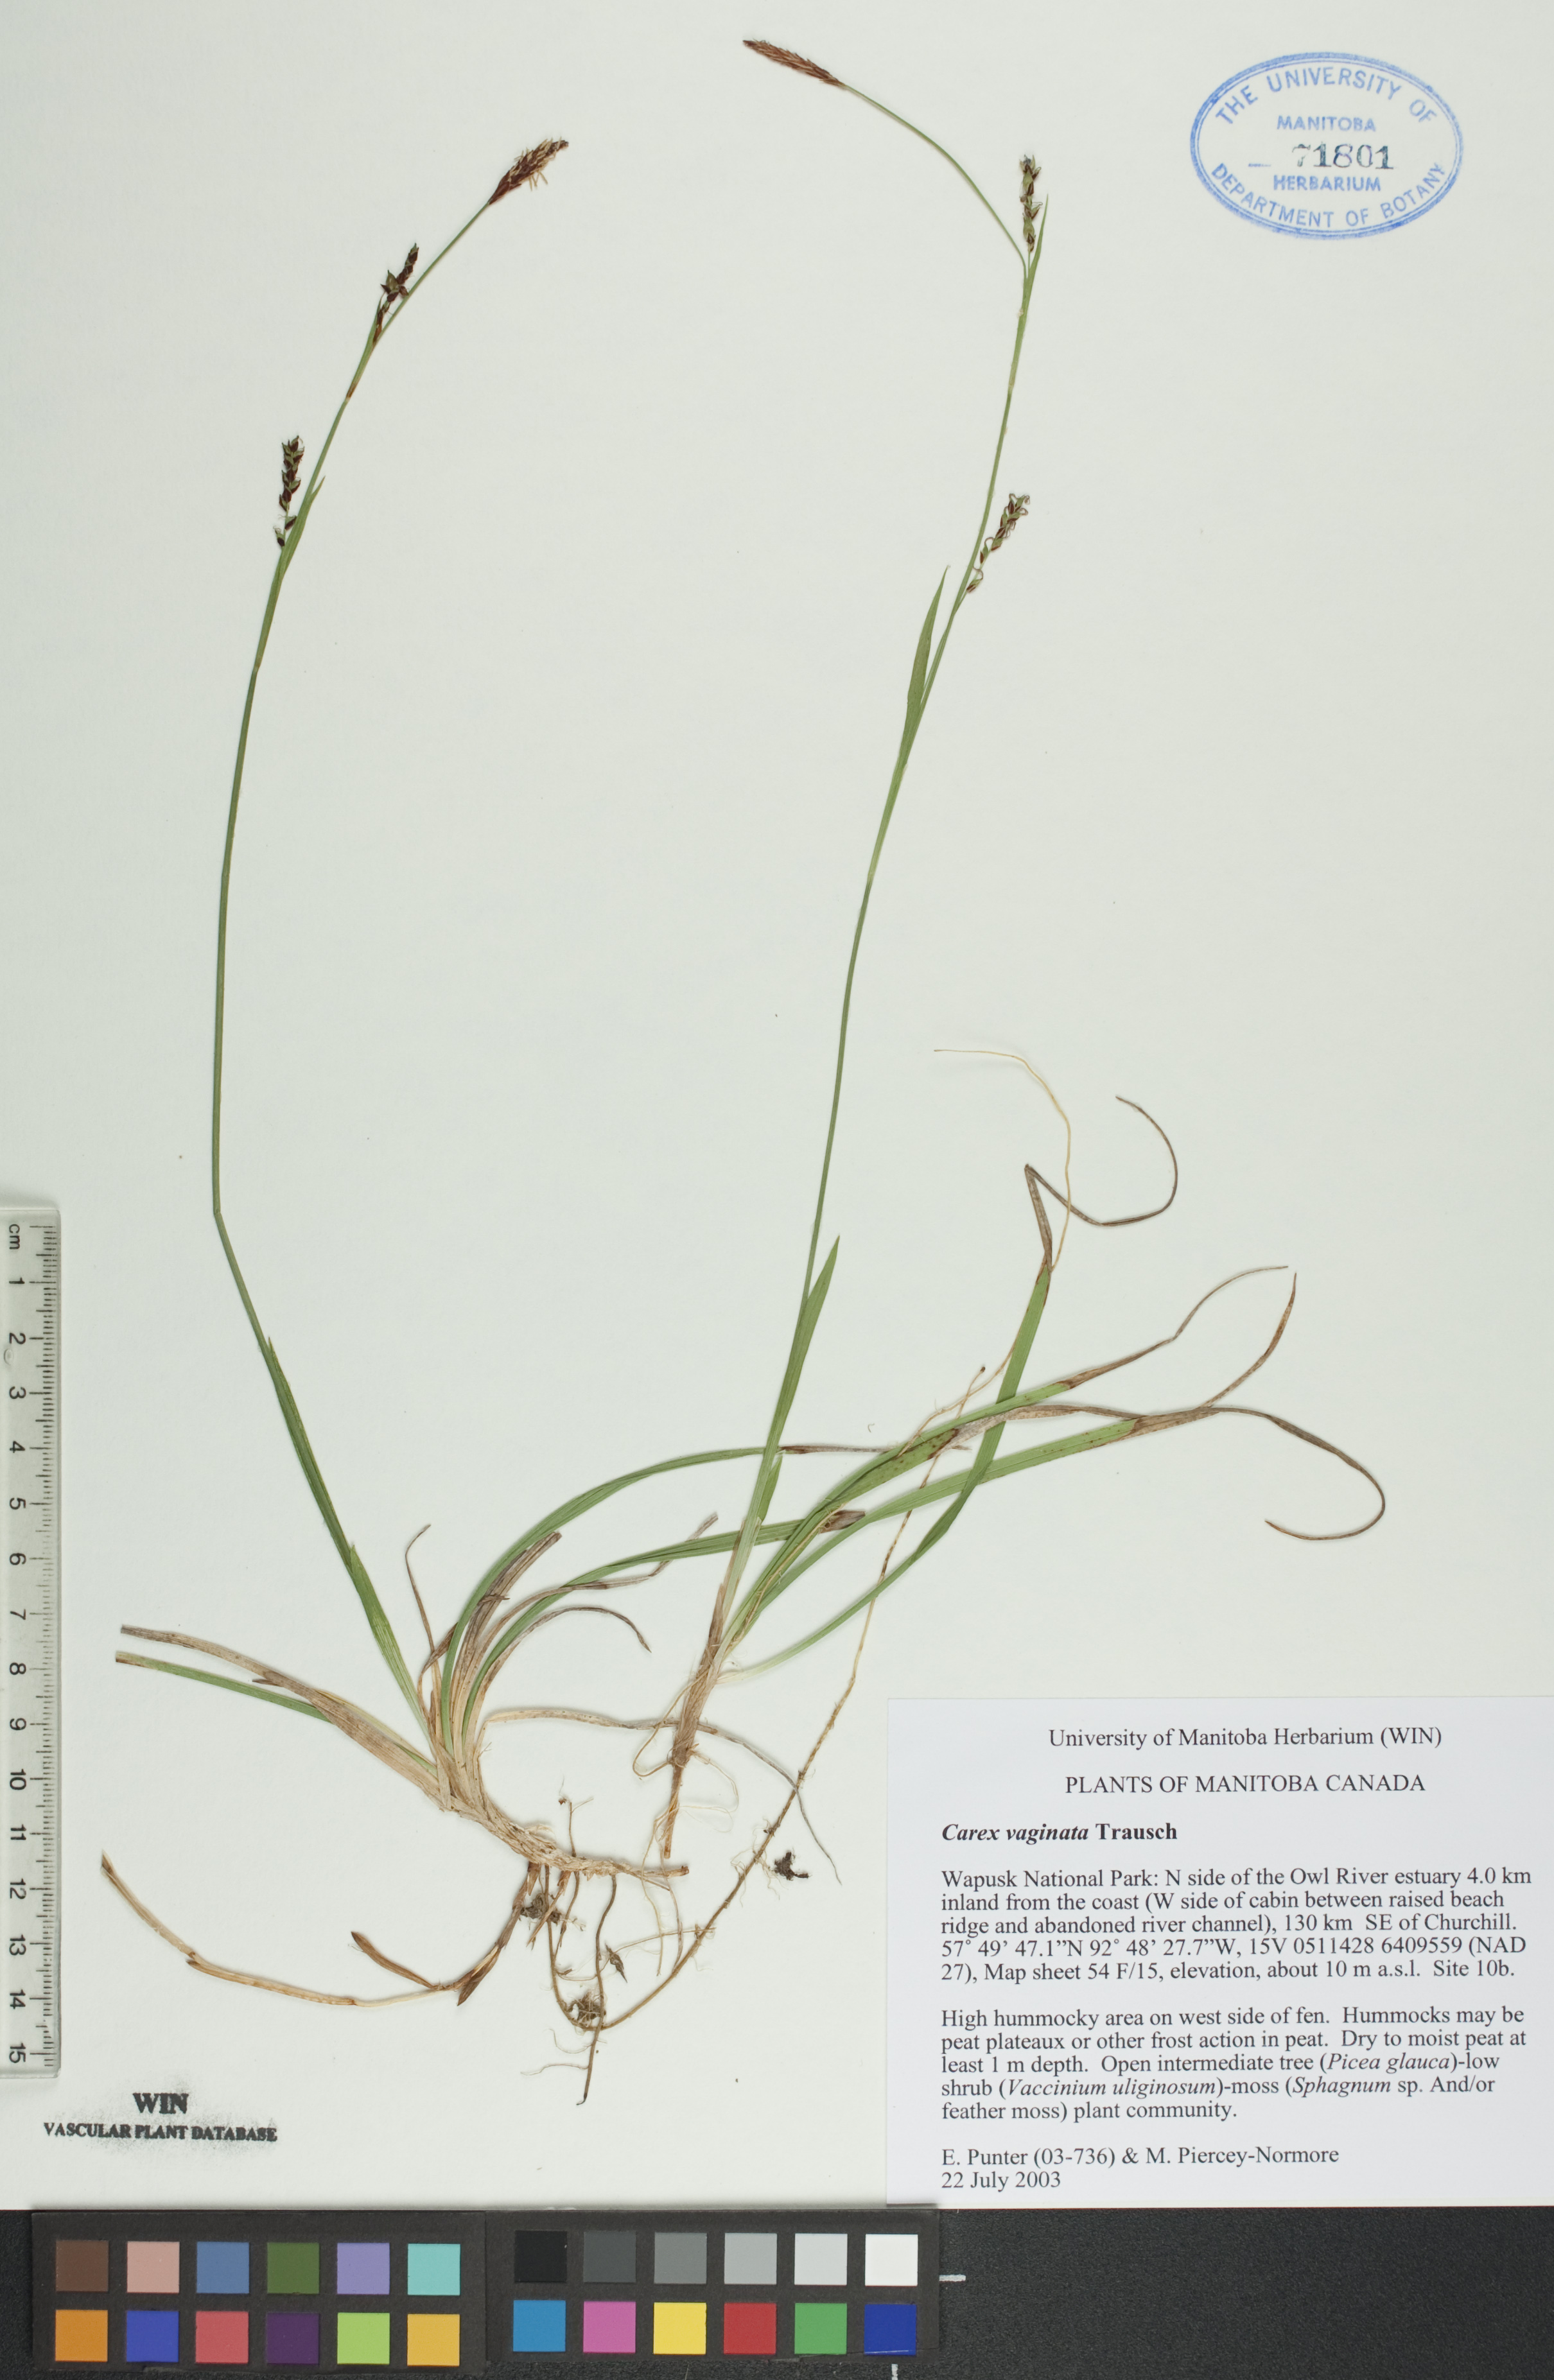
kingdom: Plantae
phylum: Tracheophyta
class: Liliopsida
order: Poales
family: Cyperaceae
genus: Carex
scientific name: Carex vaginata
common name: Sheathed sedge
